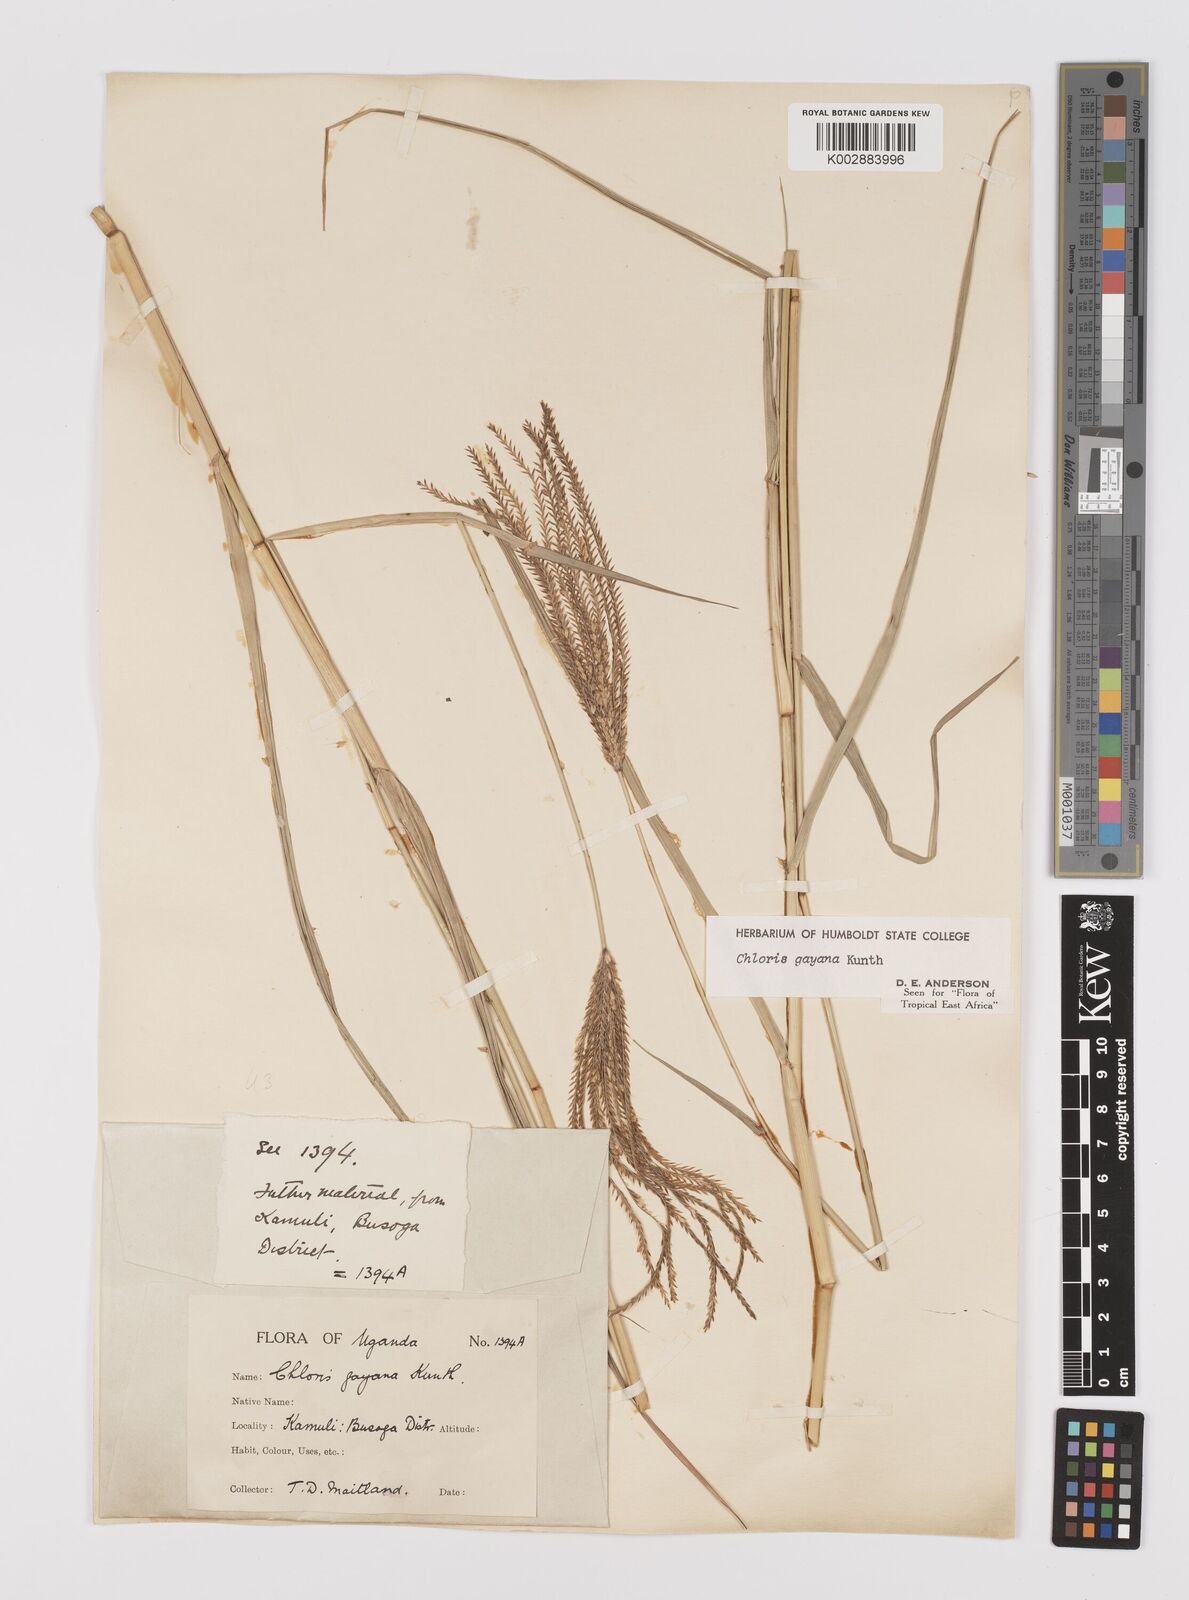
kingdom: Plantae
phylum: Tracheophyta
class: Liliopsida
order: Poales
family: Poaceae
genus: Chloris
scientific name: Chloris gayana
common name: Rhodes grass
